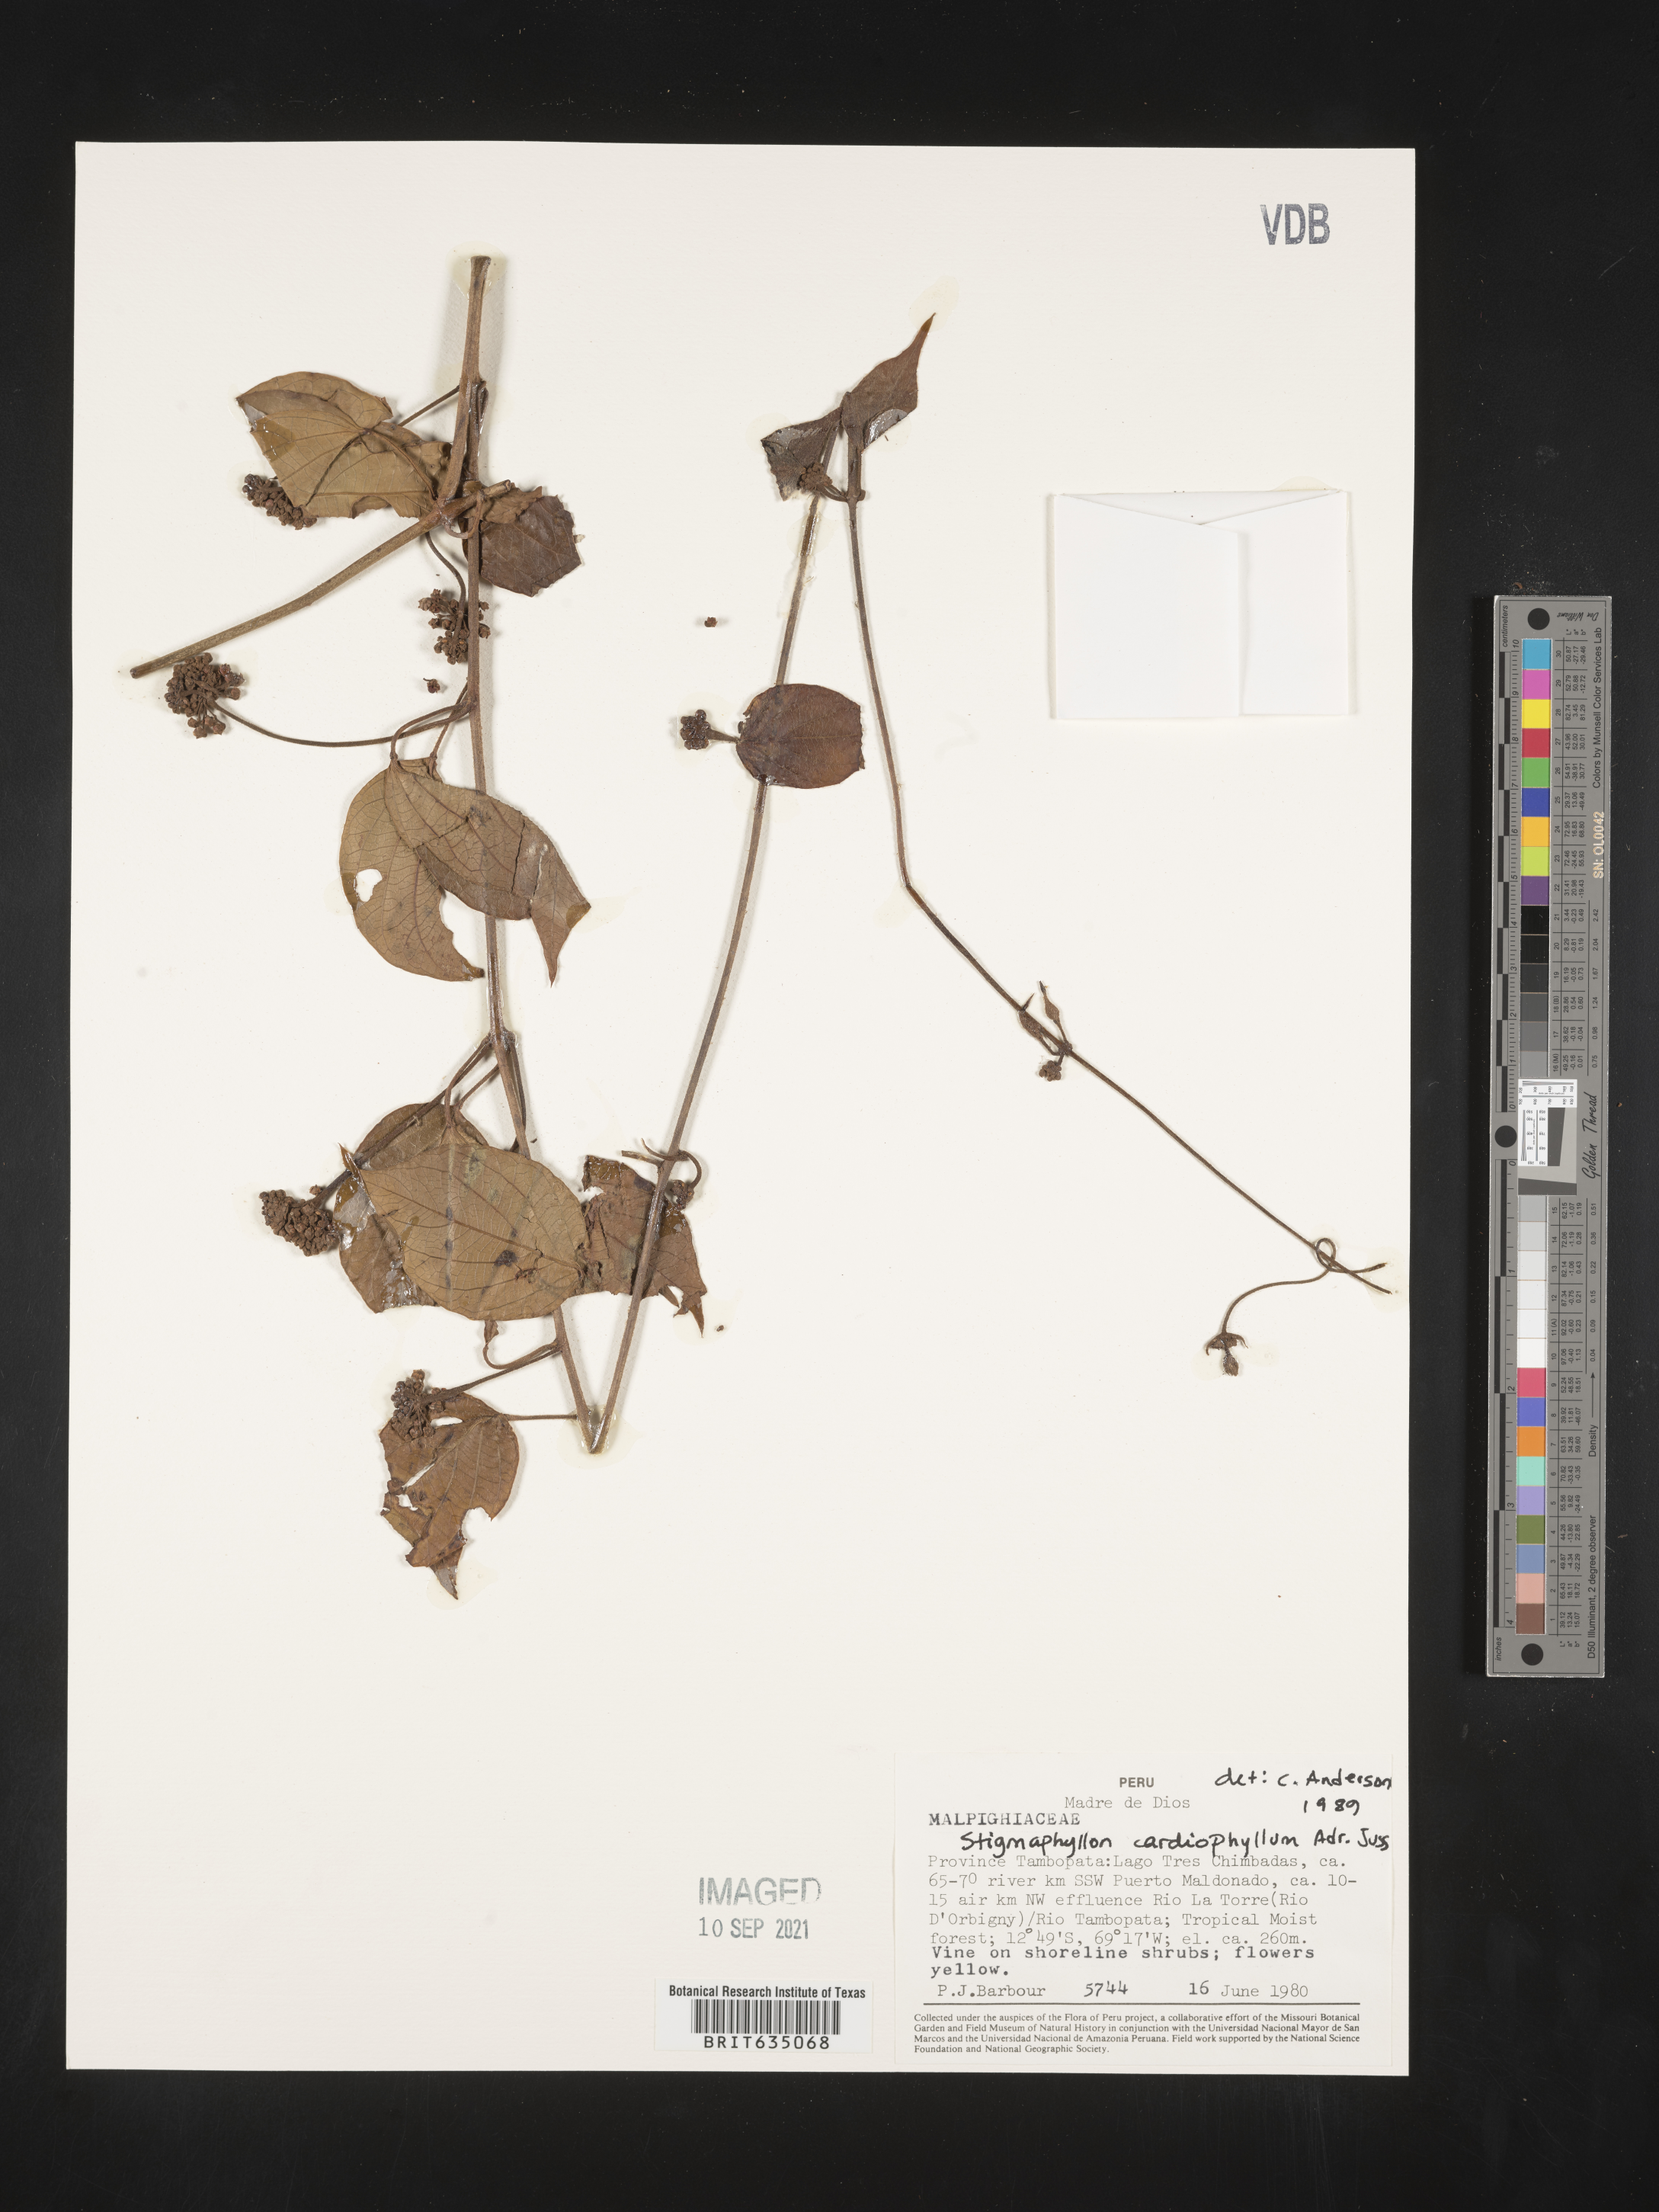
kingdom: Plantae
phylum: Tracheophyta
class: Magnoliopsida
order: Malpighiales
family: Malpighiaceae
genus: Stigmaphyllon
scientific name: Stigmaphyllon
